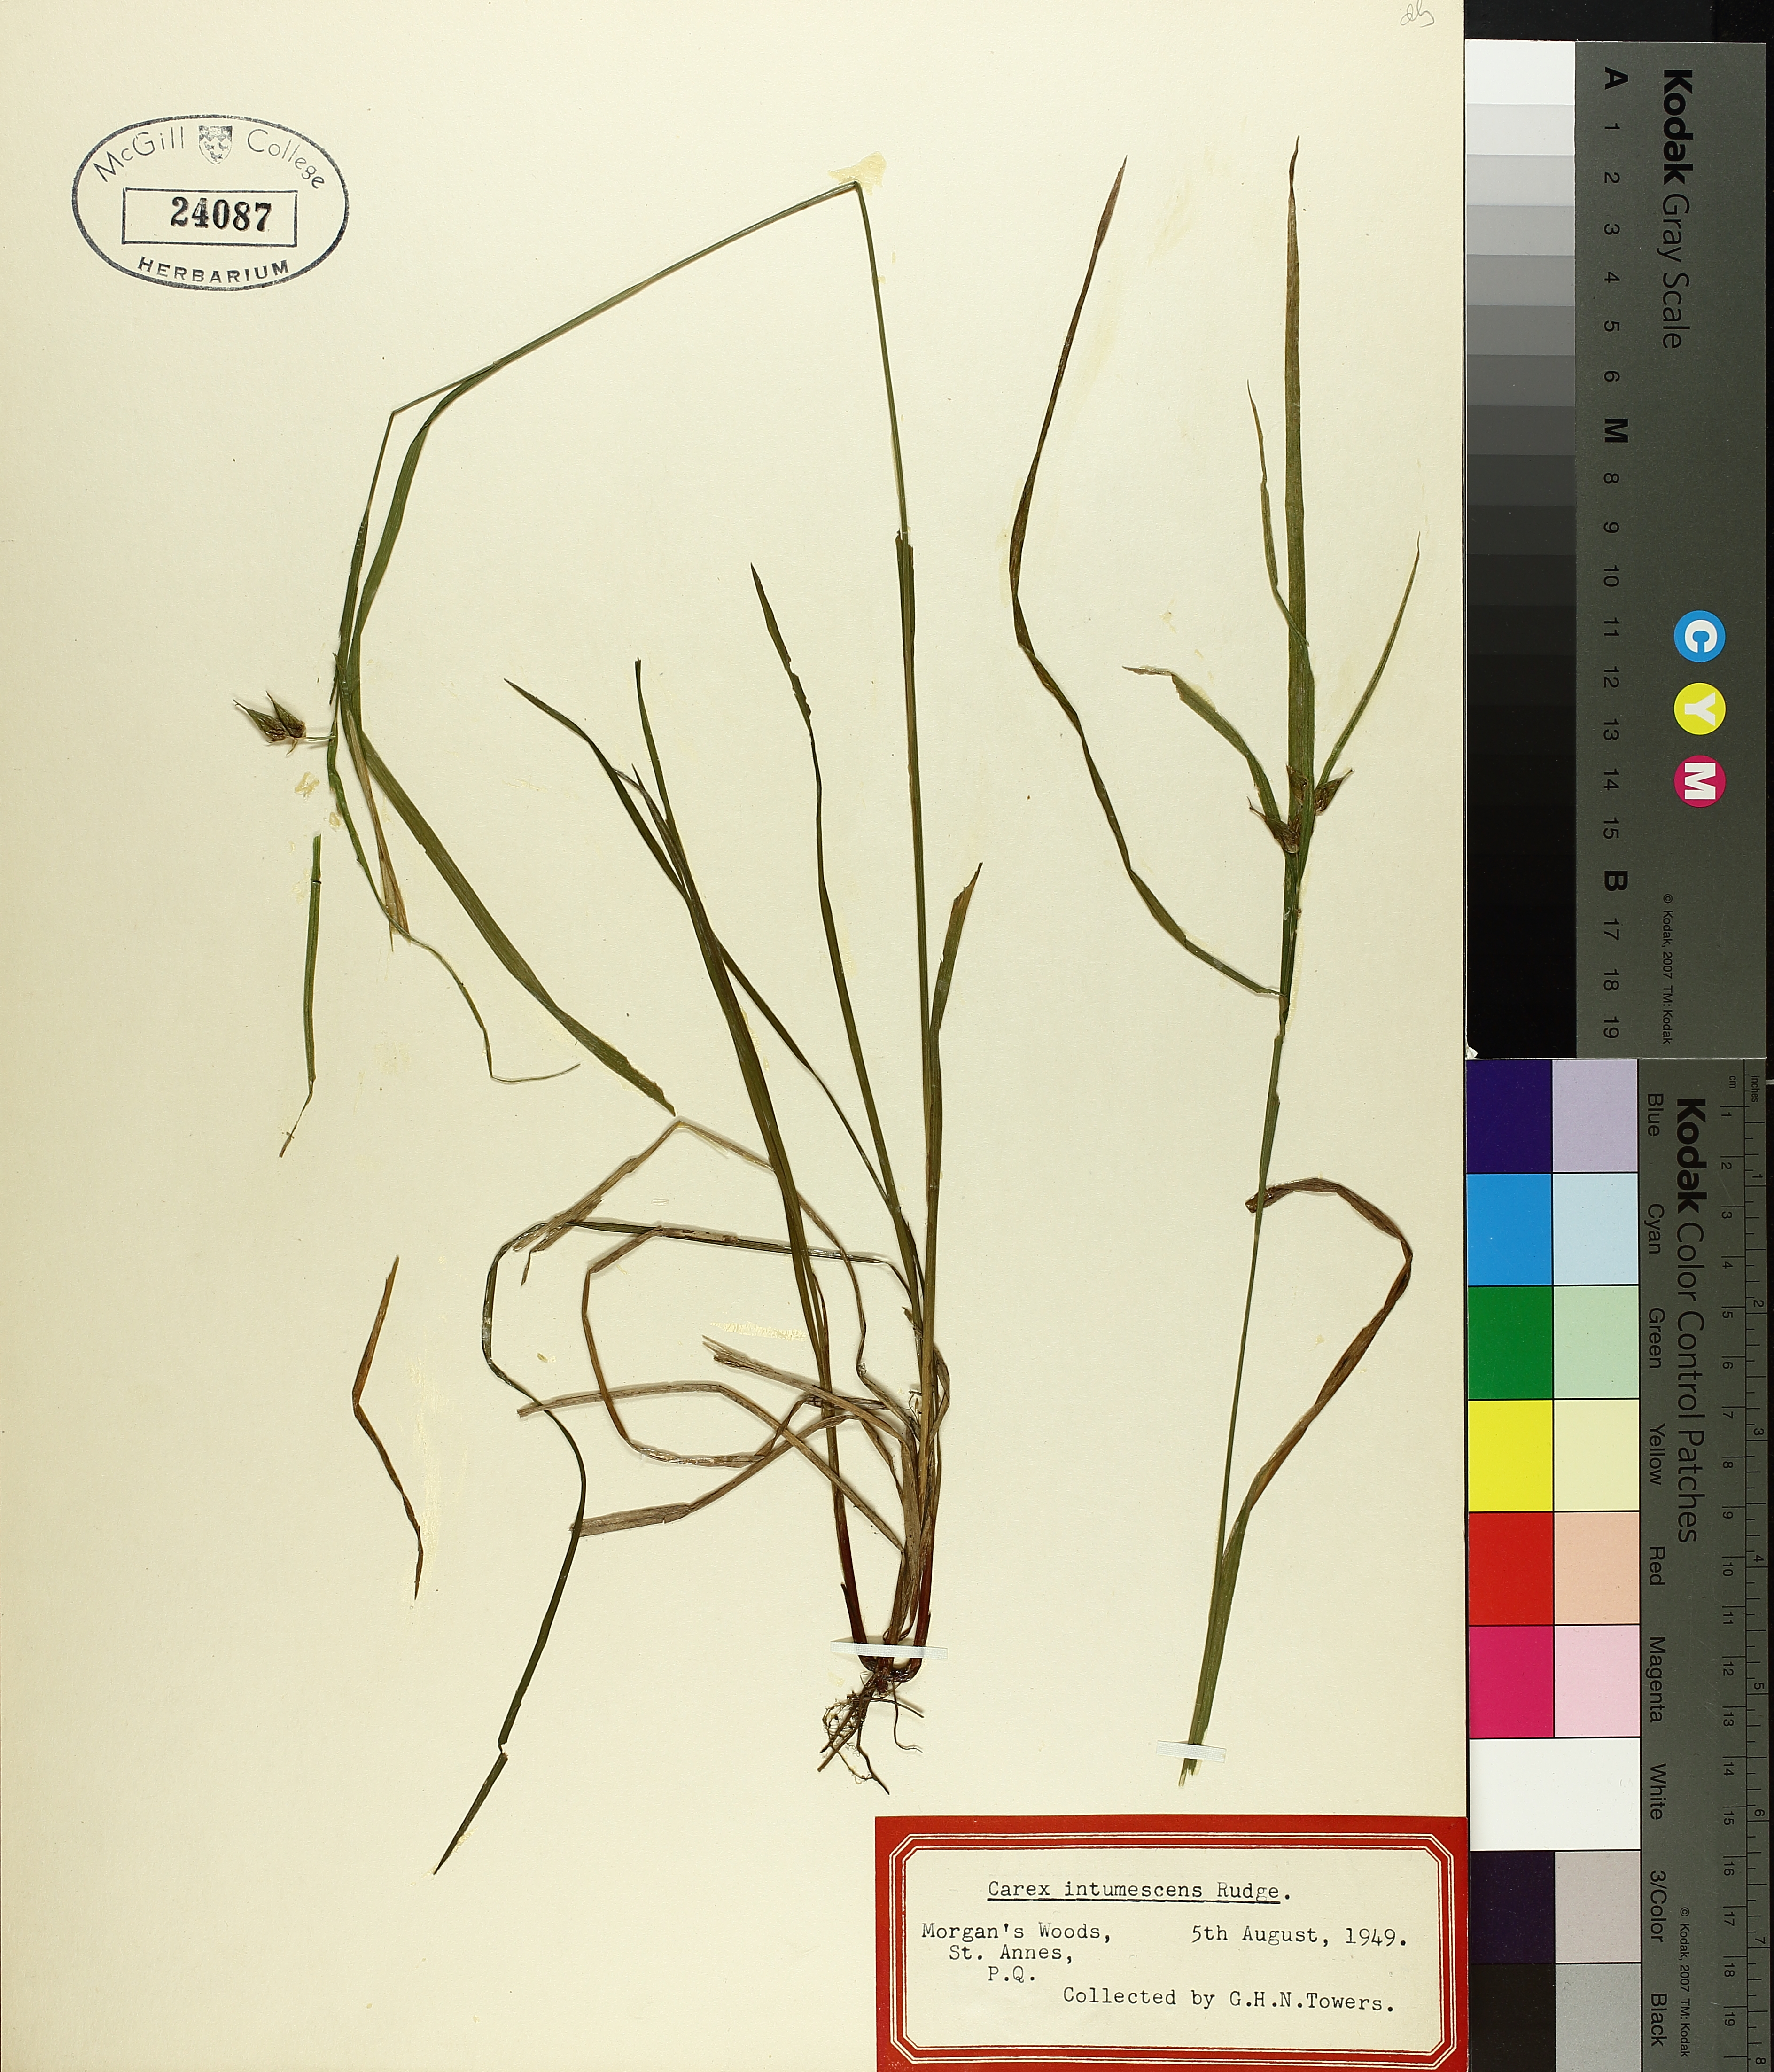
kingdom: Plantae
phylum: Tracheophyta
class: Liliopsida
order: Poales
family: Cyperaceae
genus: Carex
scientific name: Carex intumescens
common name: Greater bladder sedge
